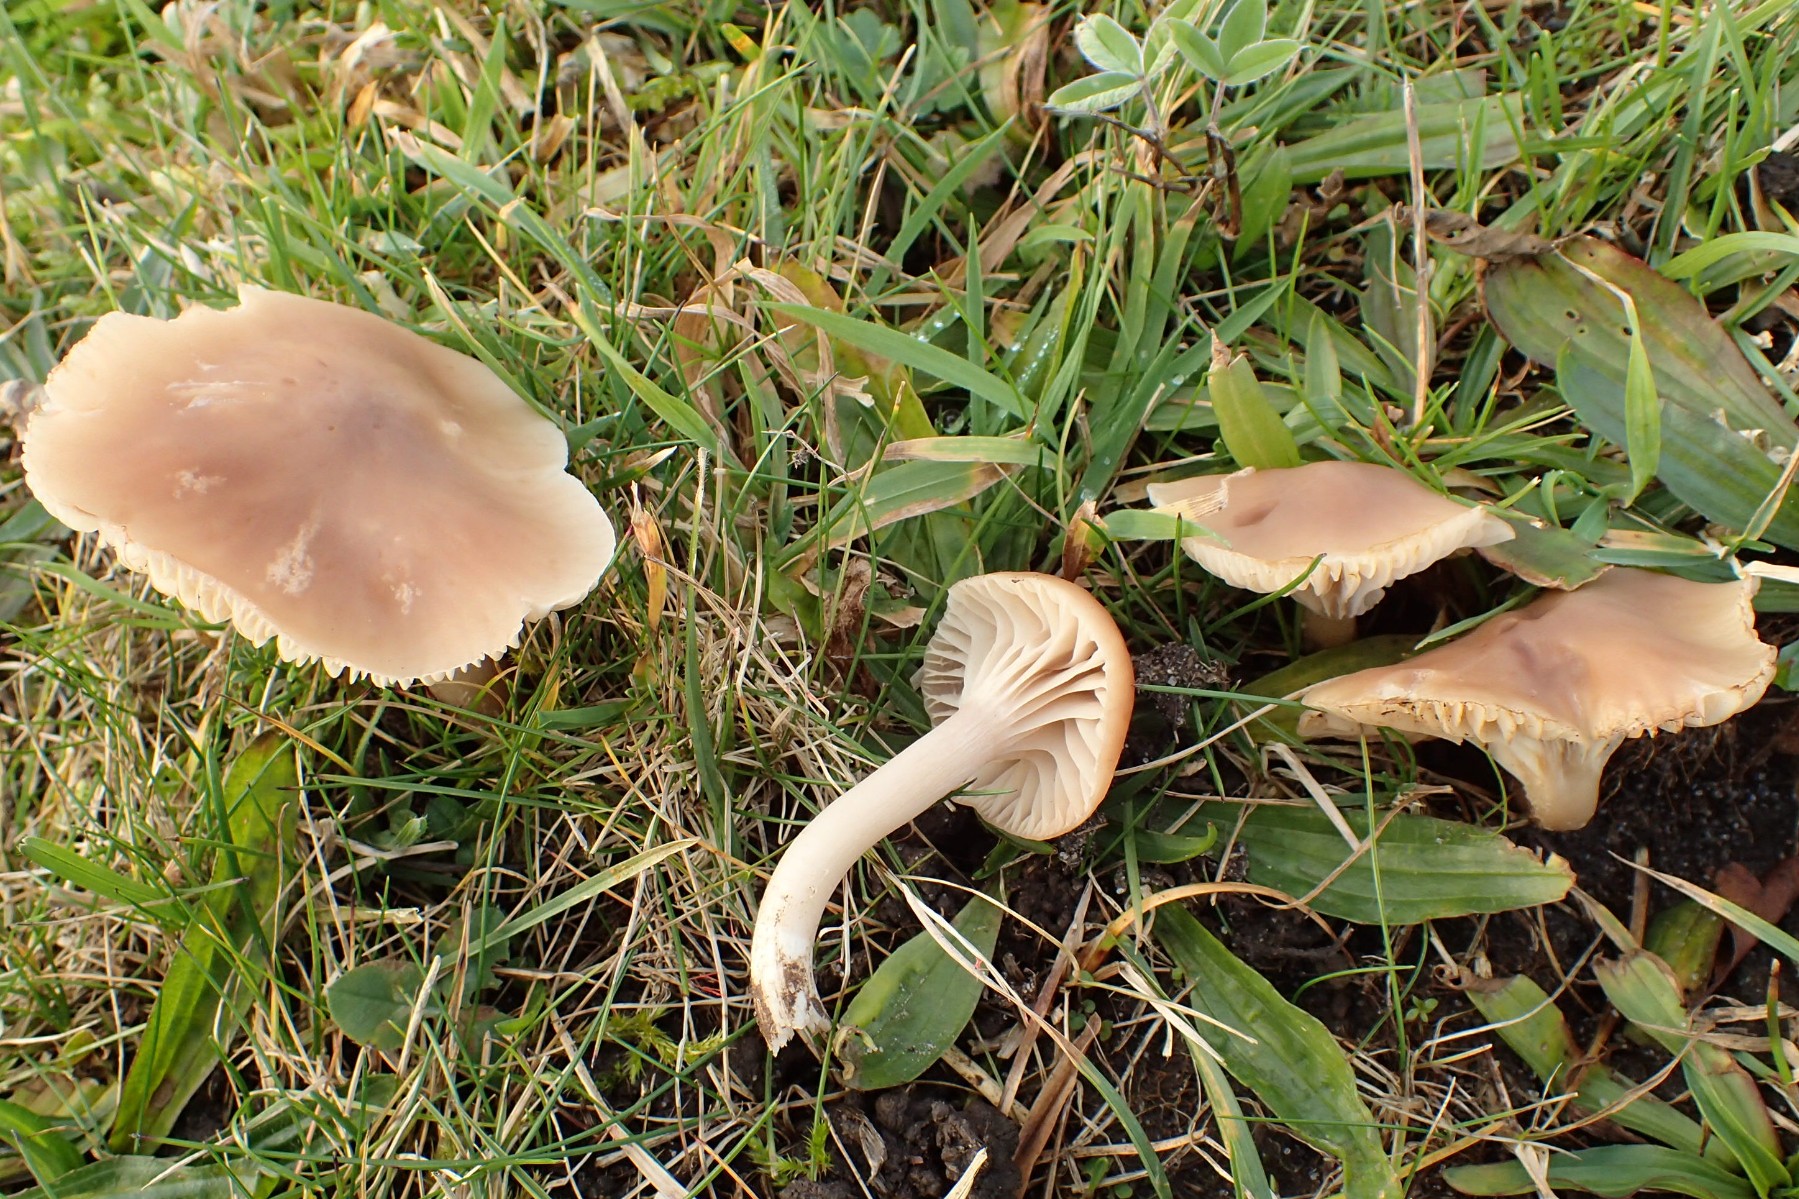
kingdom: Fungi
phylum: Basidiomycota
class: Agaricomycetes
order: Agaricales
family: Hygrophoraceae
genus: Cuphophyllus
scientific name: Cuphophyllus colemannianus
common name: rødbrun vokshat
